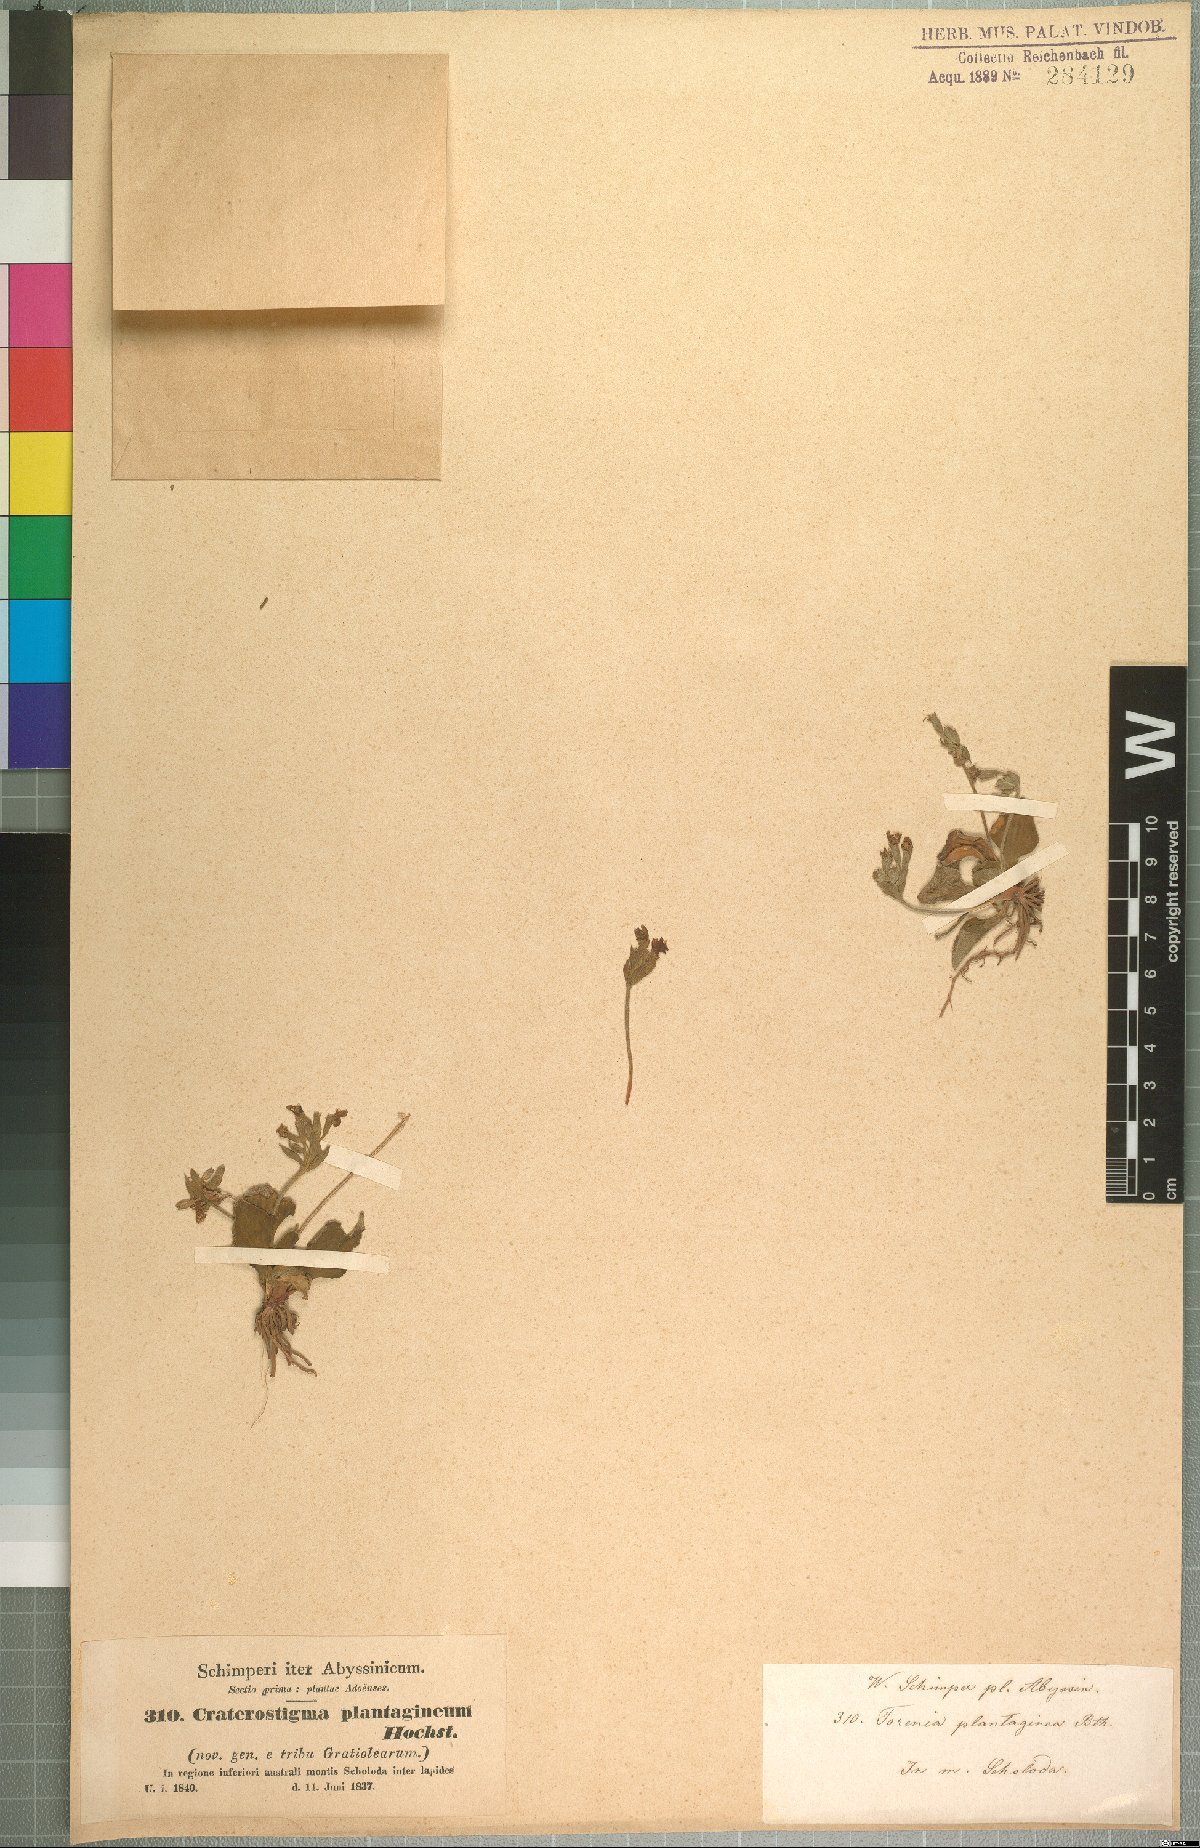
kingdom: Plantae
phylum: Tracheophyta
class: Magnoliopsida
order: Lamiales
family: Linderniaceae
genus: Craterostigma
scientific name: Craterostigma plantagineum
